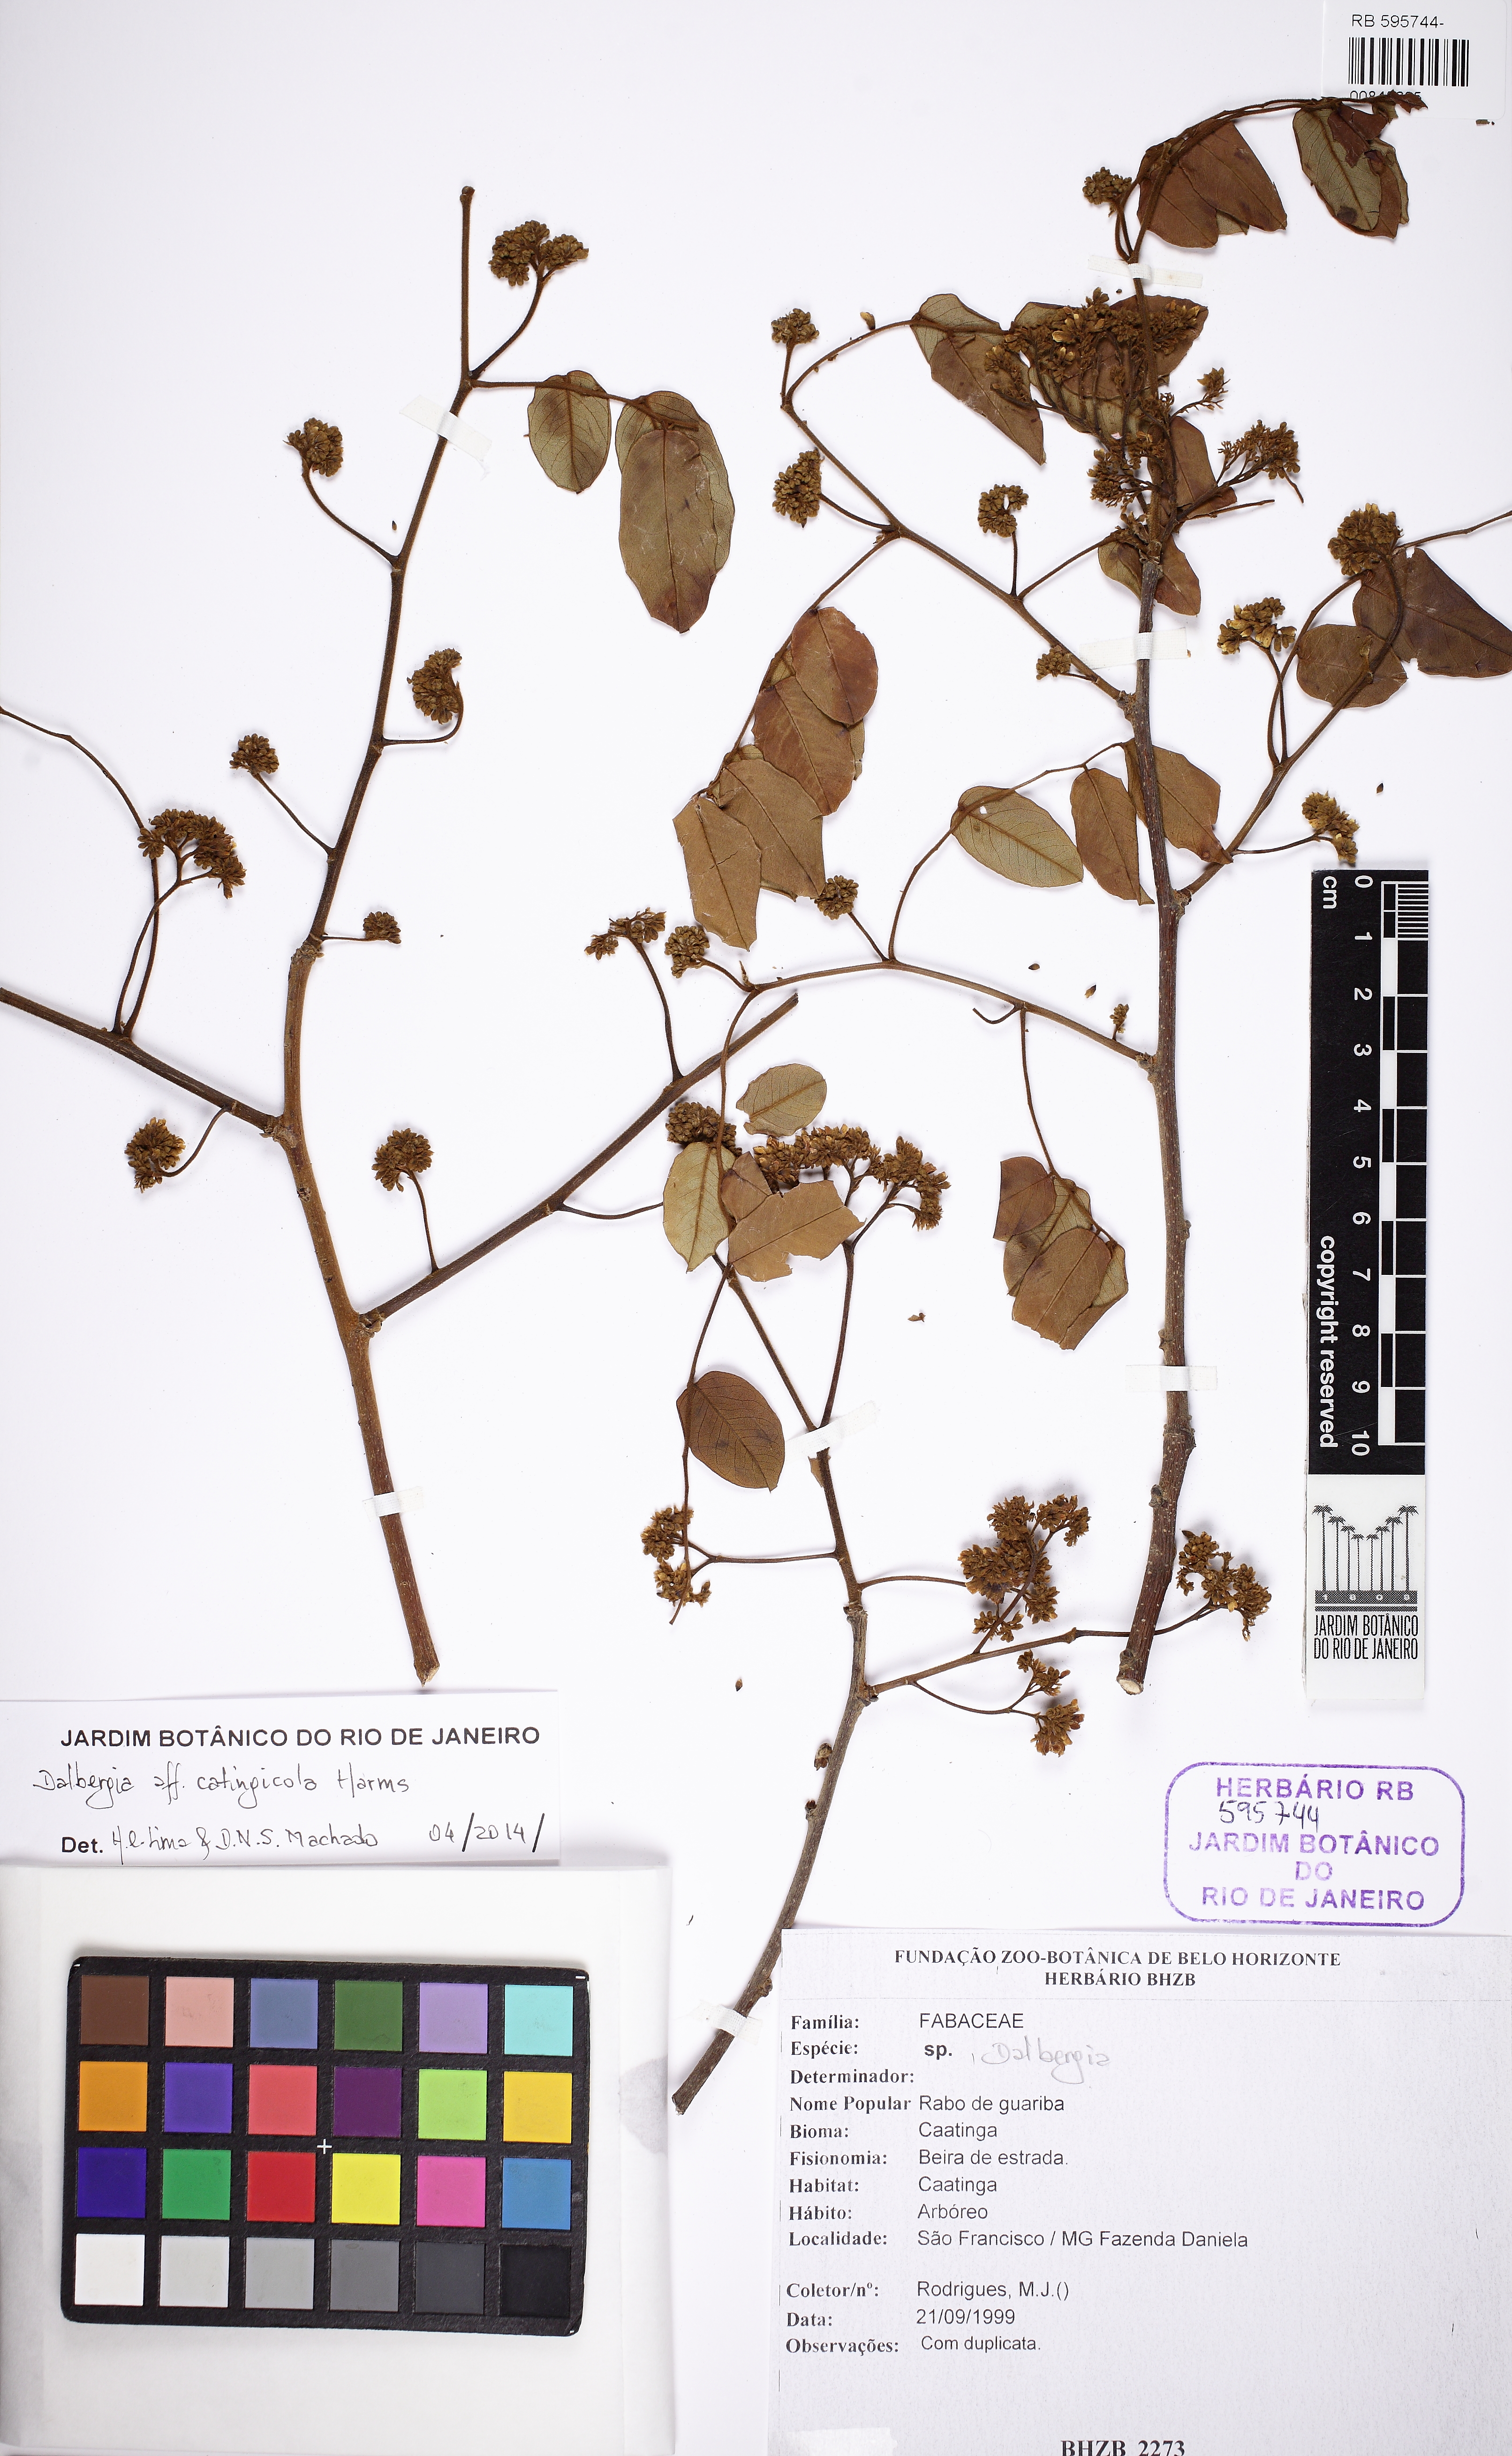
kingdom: Plantae
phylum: Tracheophyta
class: Magnoliopsida
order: Fabales
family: Fabaceae
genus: Dalbergia
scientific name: Dalbergia catingicola
